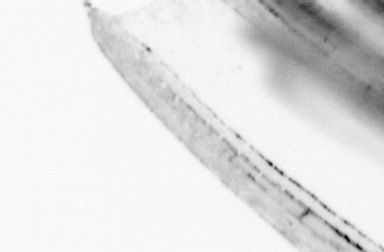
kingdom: Animalia
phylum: Chordata
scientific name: Chordata
